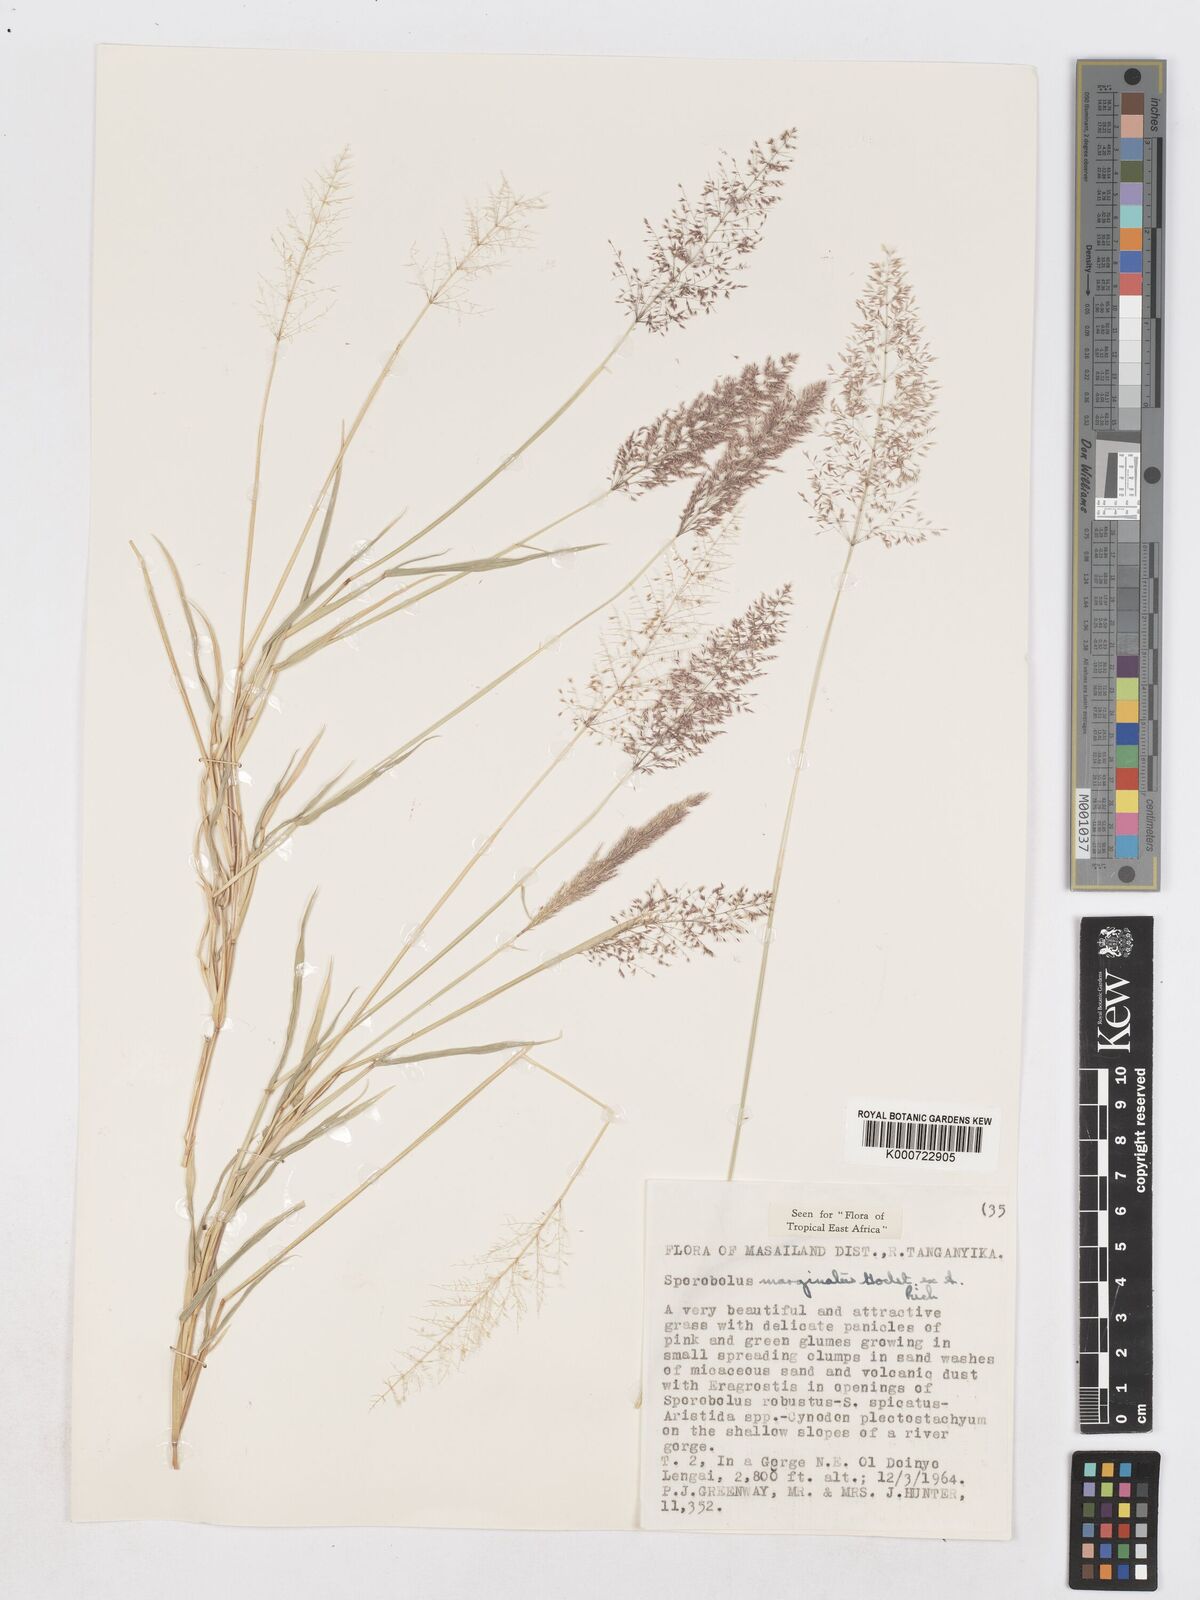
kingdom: Plantae
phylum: Tracheophyta
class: Liliopsida
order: Poales
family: Poaceae
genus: Sporobolus
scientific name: Sporobolus ioclados
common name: Pan dropseed
